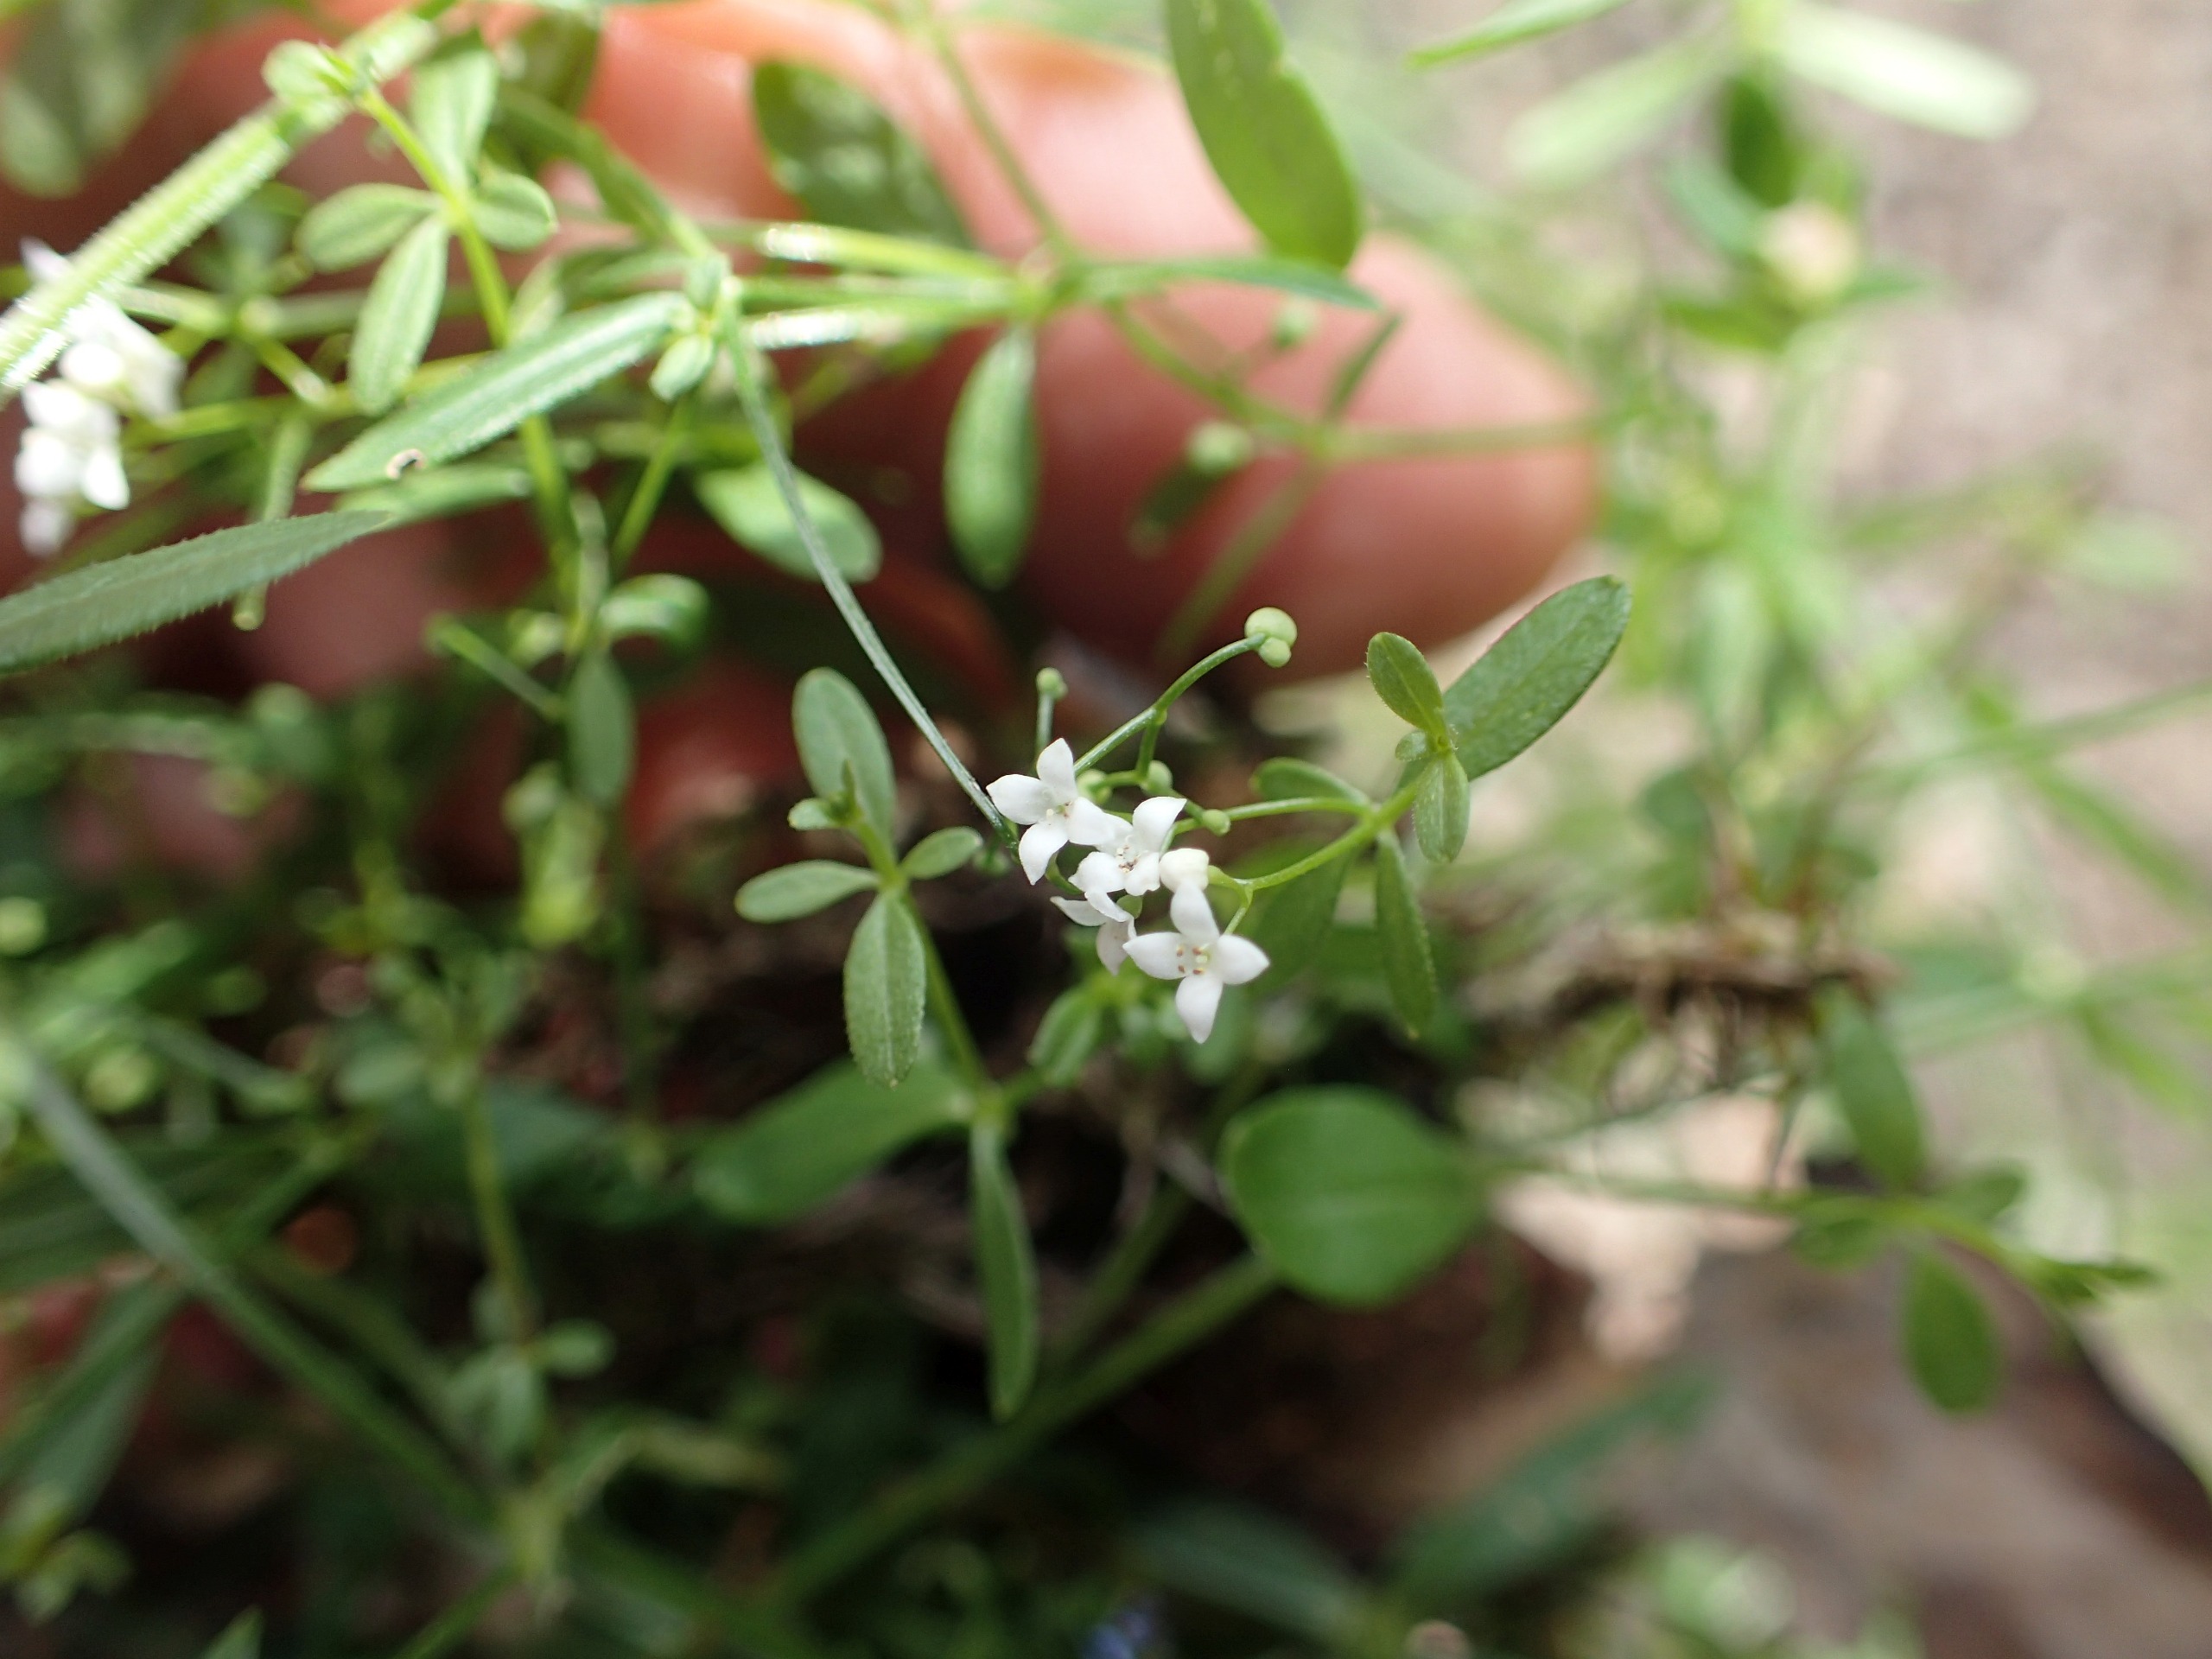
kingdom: Plantae
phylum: Tracheophyta
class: Magnoliopsida
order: Gentianales
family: Rubiaceae
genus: Galium
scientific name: Galium palustre
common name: Kær-snerre
